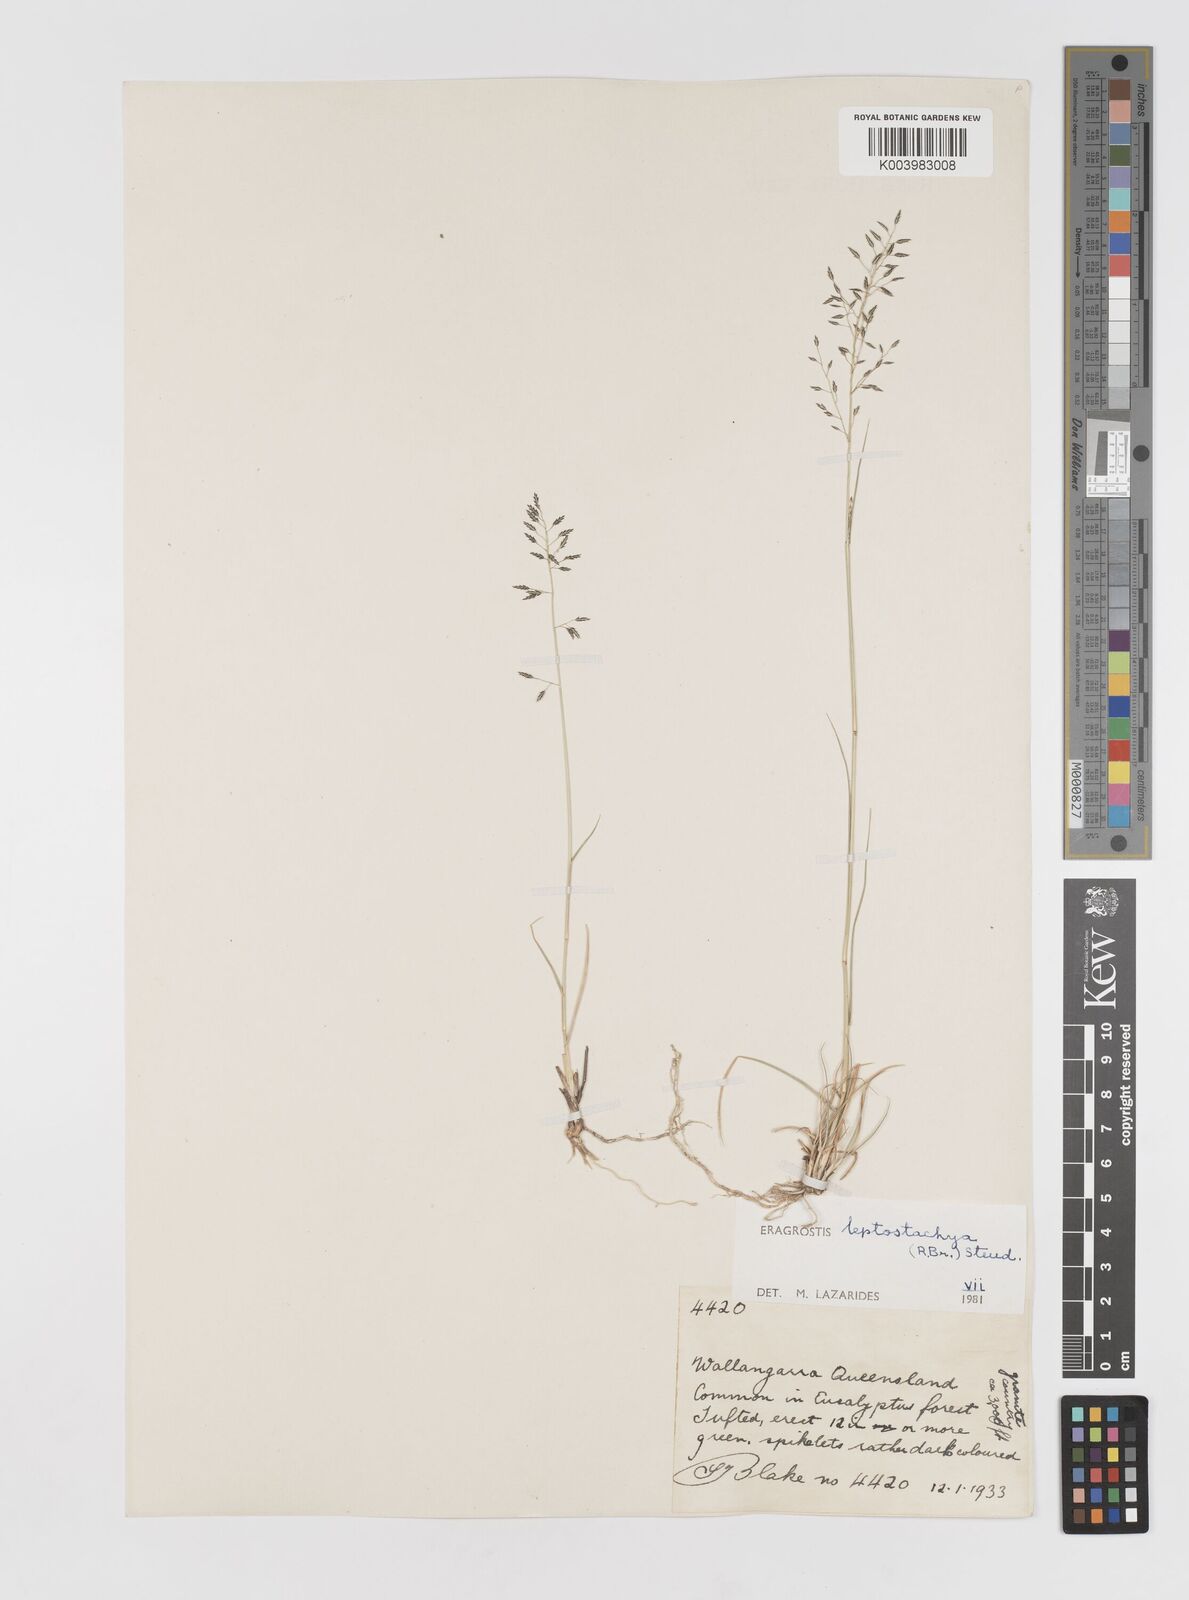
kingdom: Plantae
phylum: Tracheophyta
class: Liliopsida
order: Poales
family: Poaceae
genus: Eragrostis
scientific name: Eragrostis leptostachya
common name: Australian lovegrass
